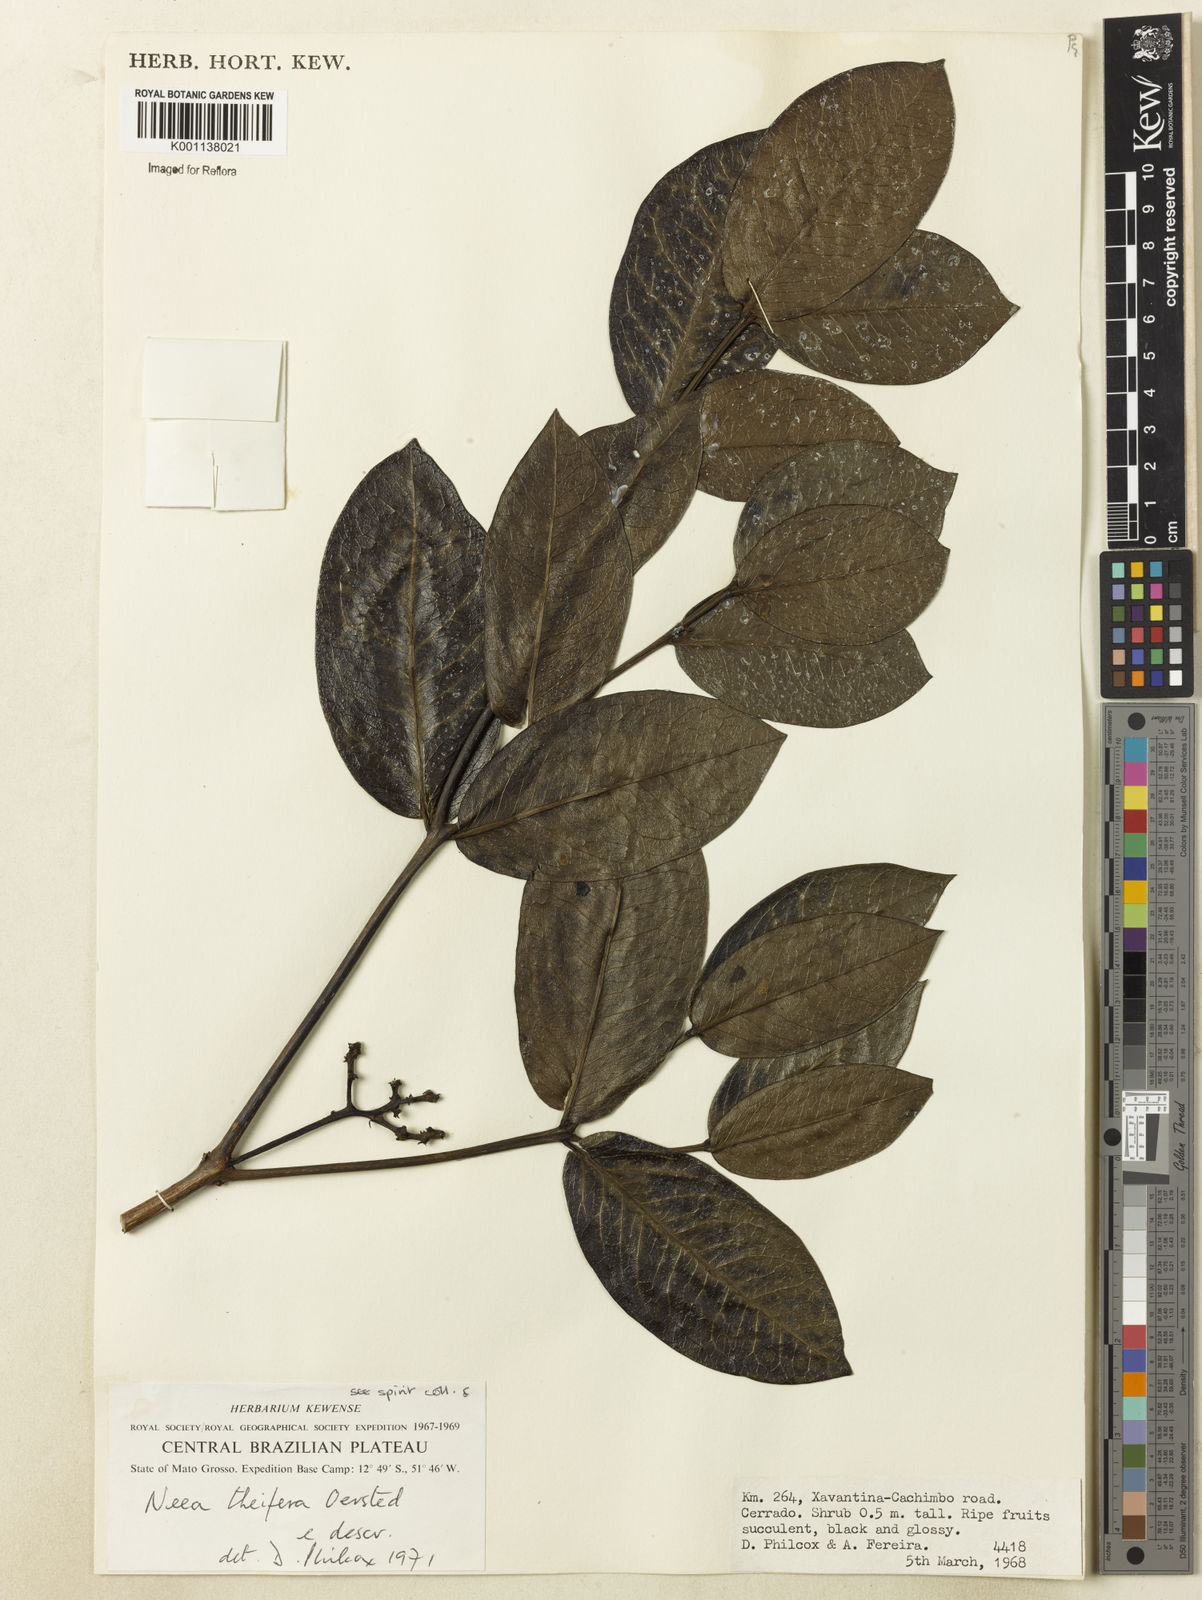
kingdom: Plantae
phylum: Tracheophyta
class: Magnoliopsida
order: Caryophyllales
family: Nyctaginaceae
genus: Neea
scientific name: Neea theifera
